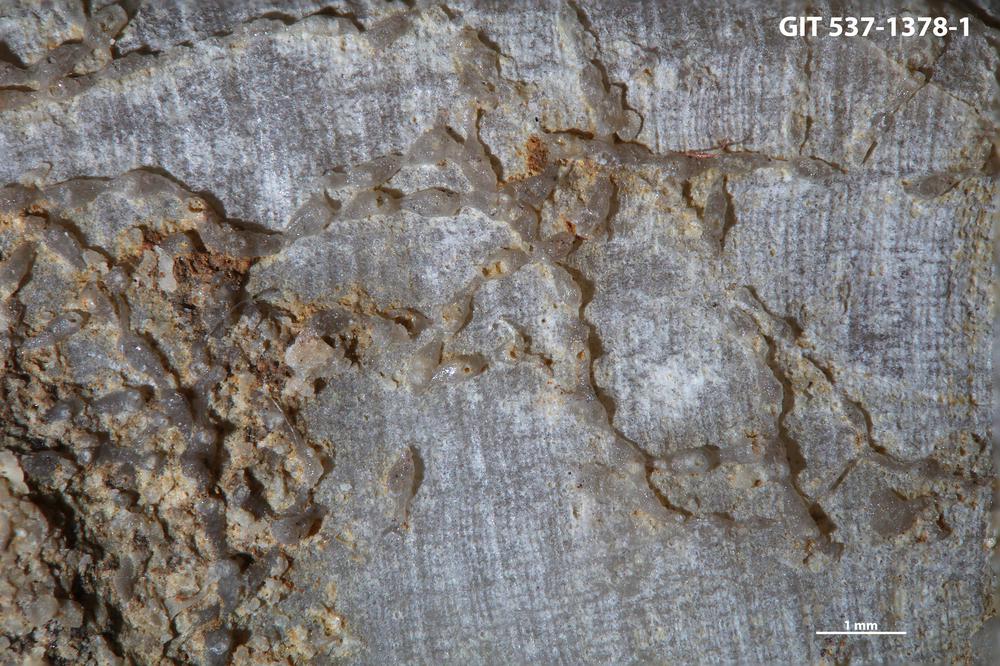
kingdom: Animalia
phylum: Bryozoa
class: Stenolaemata
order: Cyclostomatida
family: Corynotrypidae
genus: Corynotrypa
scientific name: Corynotrypa delicatula
